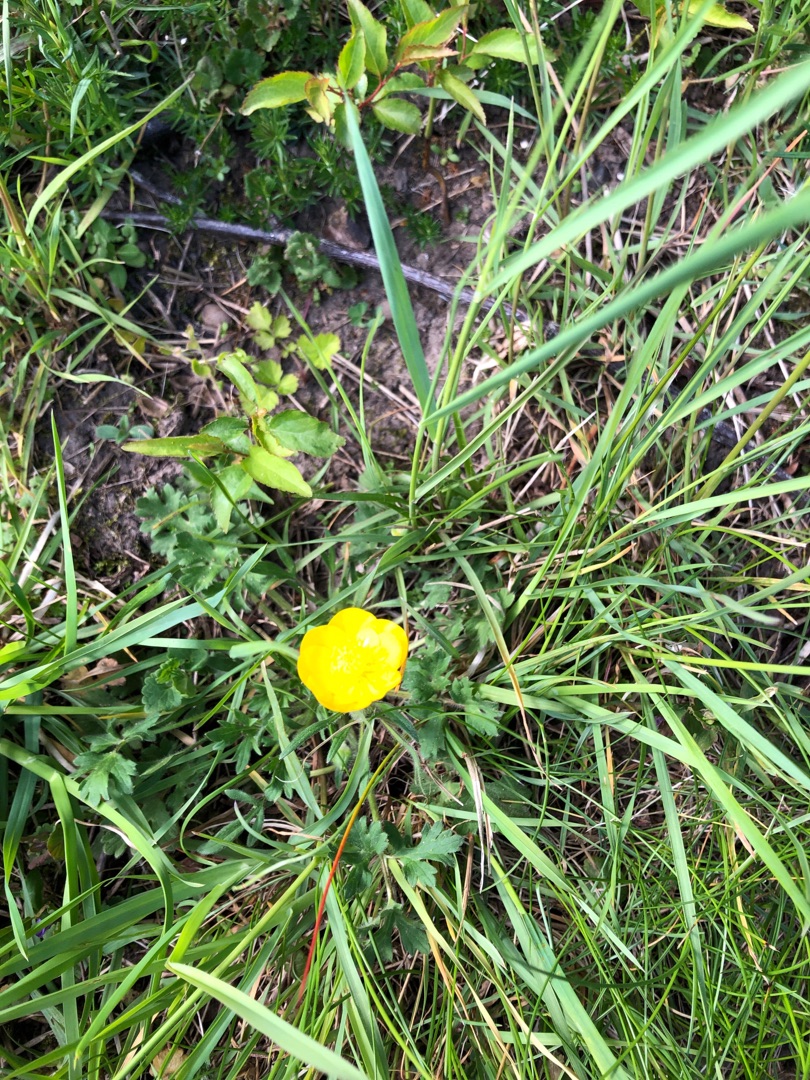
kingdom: Plantae
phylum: Tracheophyta
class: Magnoliopsida
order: Ranunculales
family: Ranunculaceae
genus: Ranunculus
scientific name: Ranunculus bulbosus
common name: Knold-ranunkel
